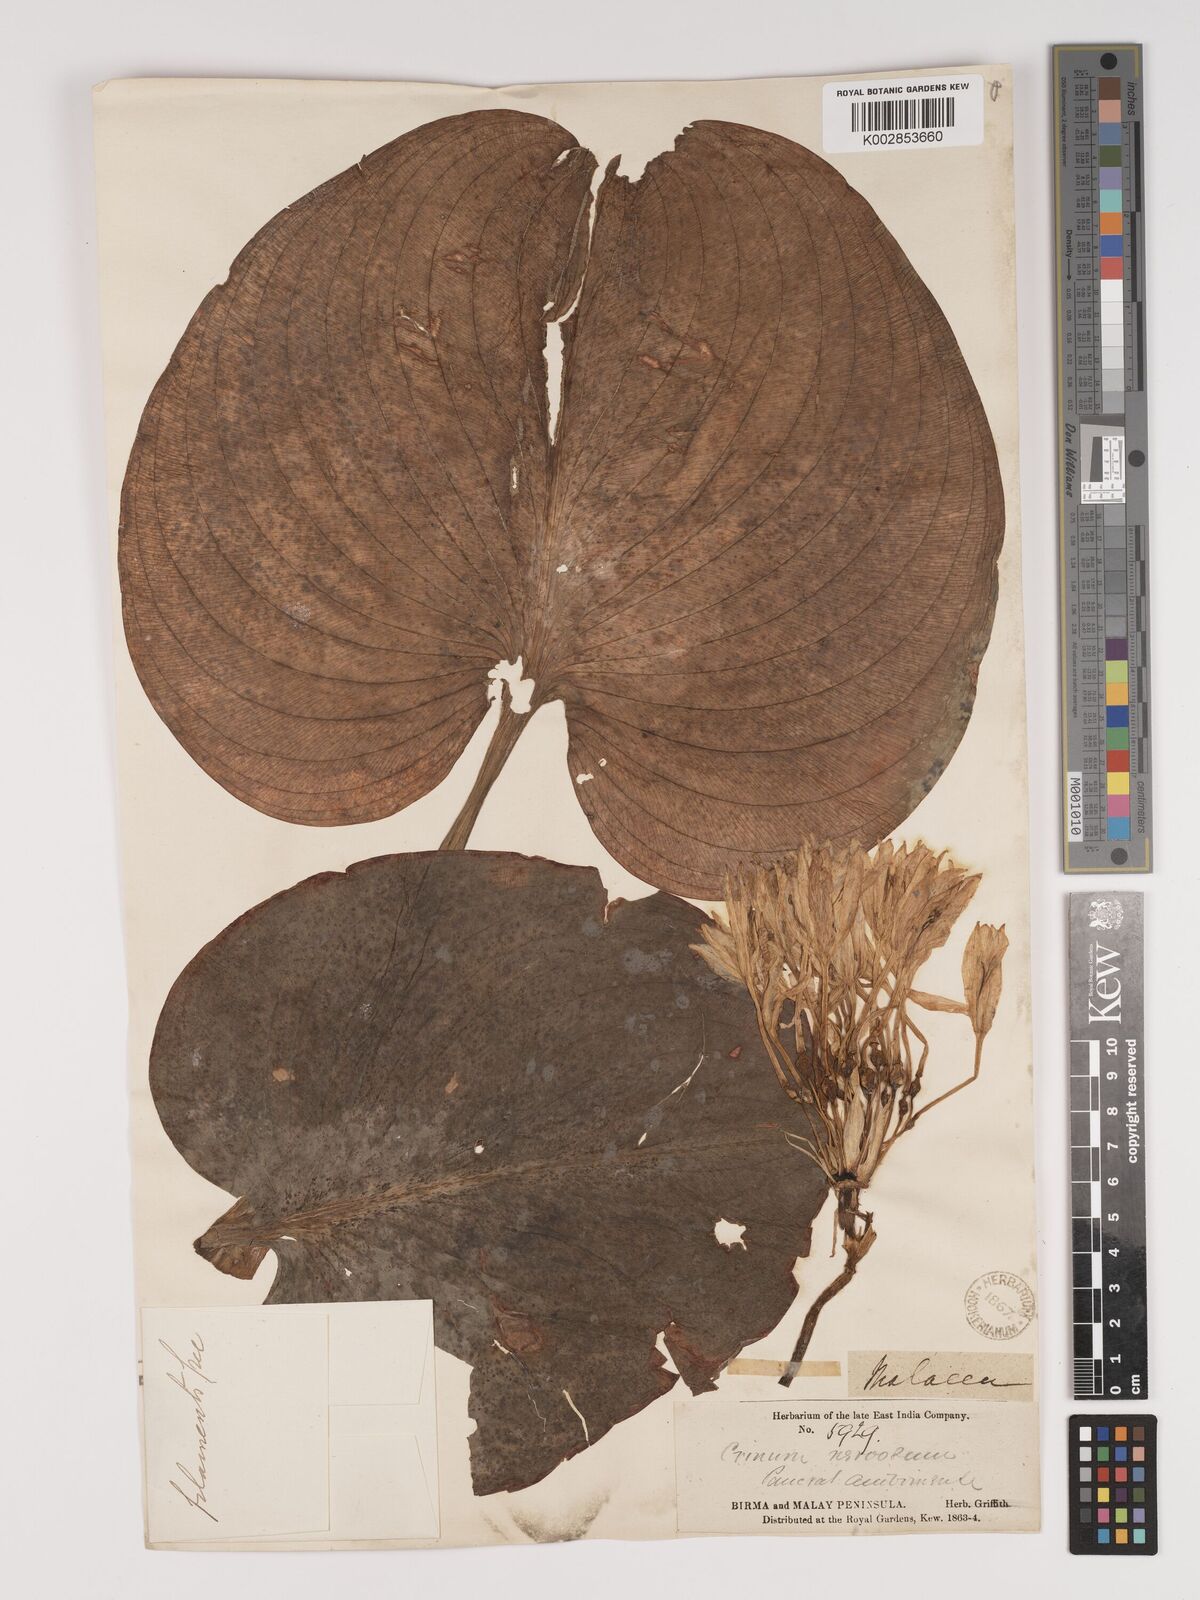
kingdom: Plantae
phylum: Tracheophyta
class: Liliopsida
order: Asparagales
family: Amaryllidaceae
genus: Proiphys
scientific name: Proiphys amboinensis
